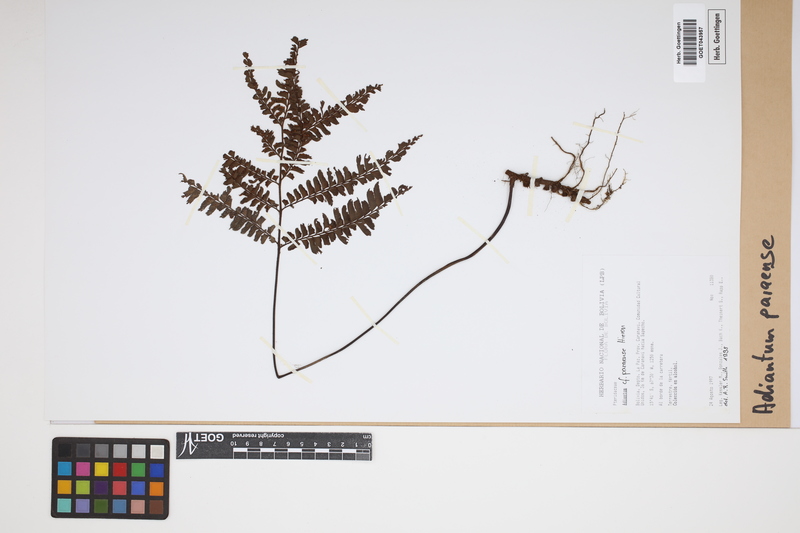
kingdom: Plantae
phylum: Tracheophyta
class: Polypodiopsida
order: Polypodiales
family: Pteridaceae
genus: Adiantum
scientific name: Adiantum paraense
